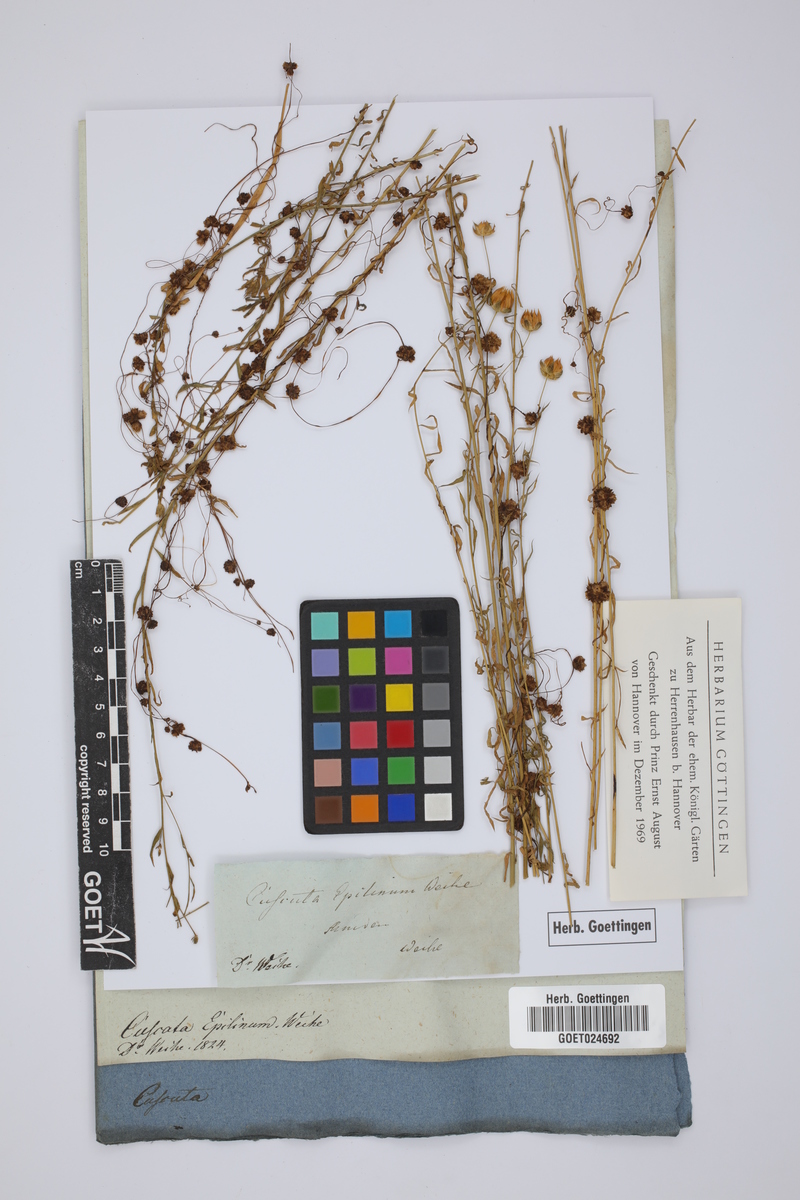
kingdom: Plantae
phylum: Tracheophyta
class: Magnoliopsida
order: Solanales
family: Convolvulaceae
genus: Cuscuta
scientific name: Cuscuta epilinum
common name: Flax dodder
